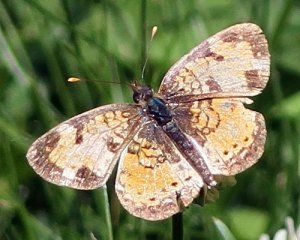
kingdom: Animalia
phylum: Arthropoda
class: Insecta
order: Lepidoptera
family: Nymphalidae
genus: Phyciodes
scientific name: Phyciodes tharos
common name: Northern Crescent
